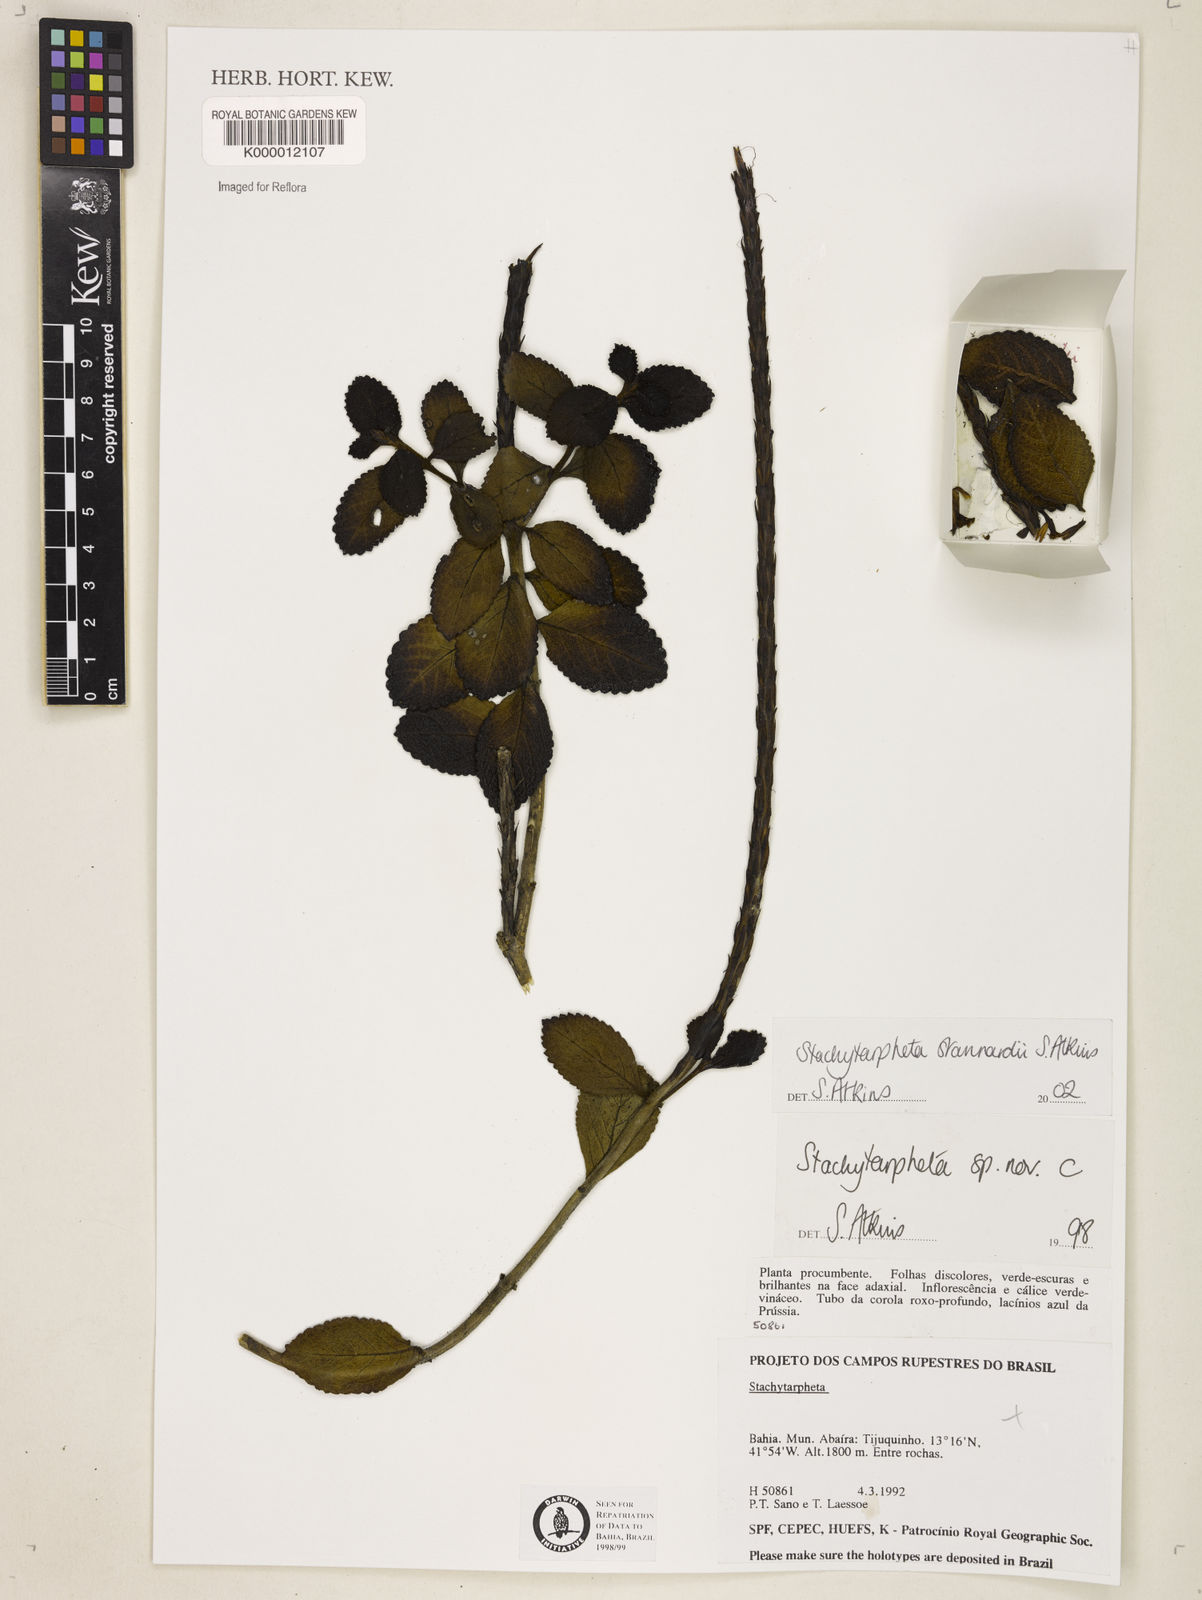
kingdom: Plantae
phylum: Tracheophyta
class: Magnoliopsida
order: Lamiales
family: Verbenaceae
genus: Stachytarpheta
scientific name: Stachytarpheta
